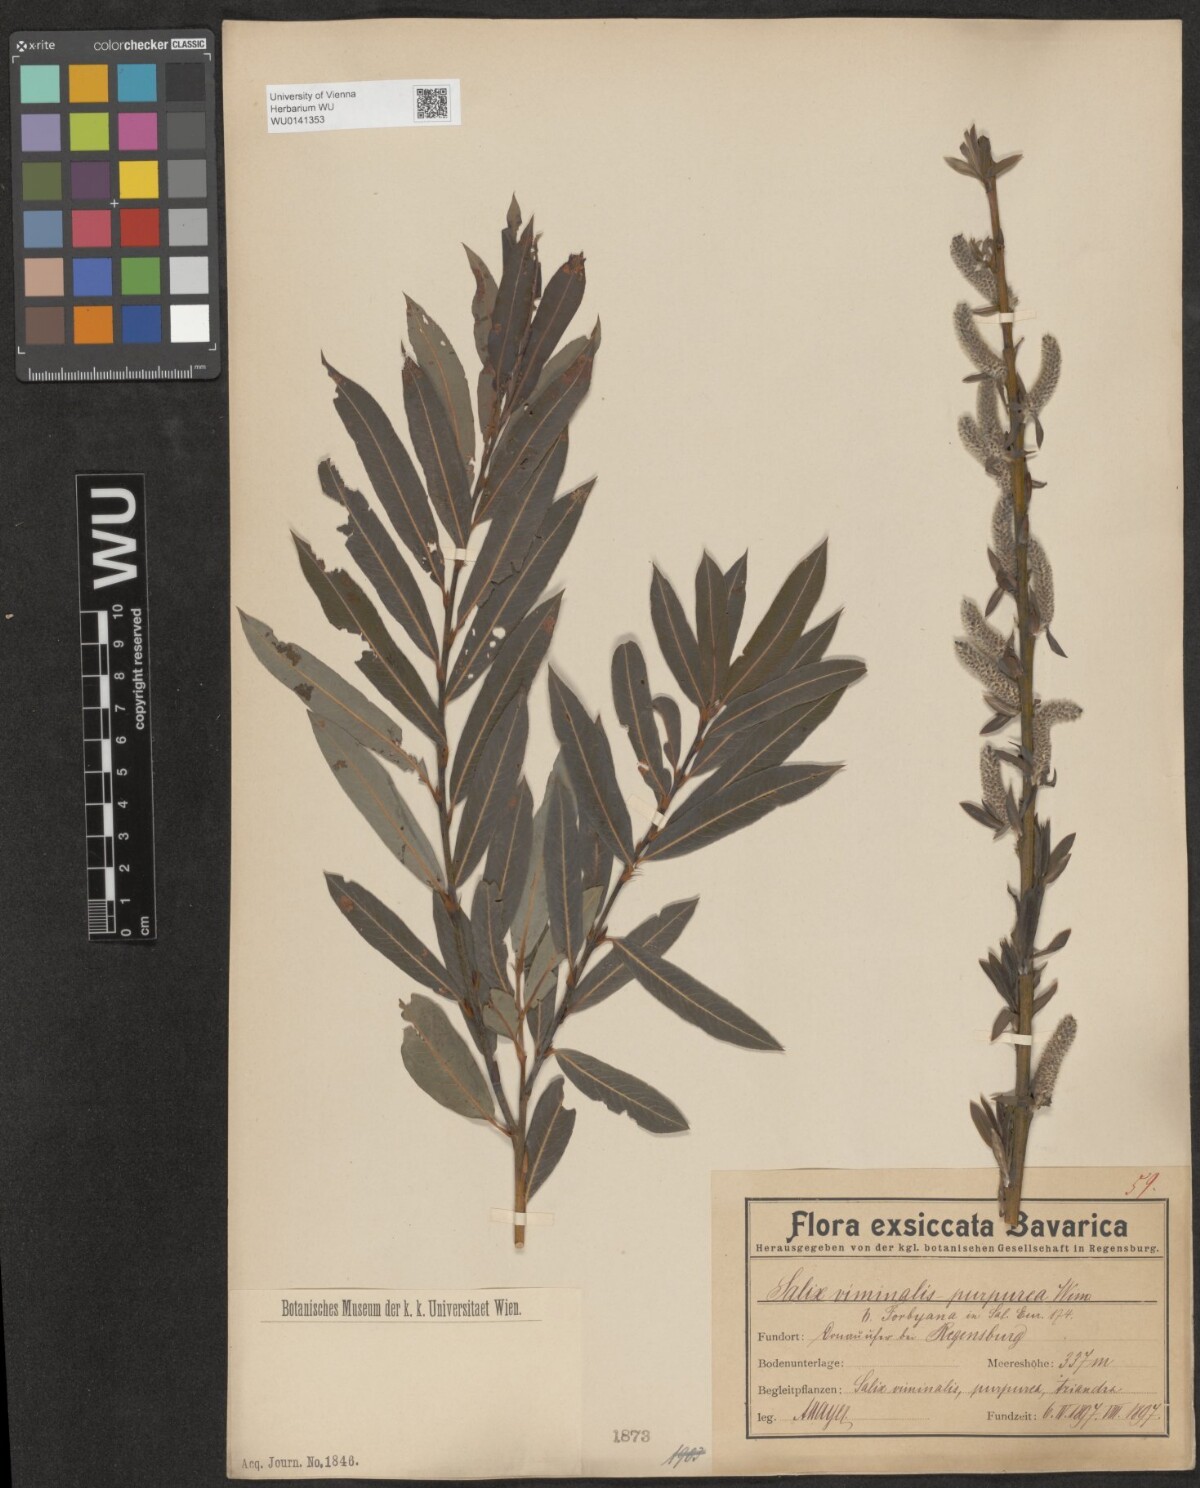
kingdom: Plantae
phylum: Tracheophyta
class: Magnoliopsida
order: Malpighiales
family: Salicaceae
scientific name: Salicaceae
